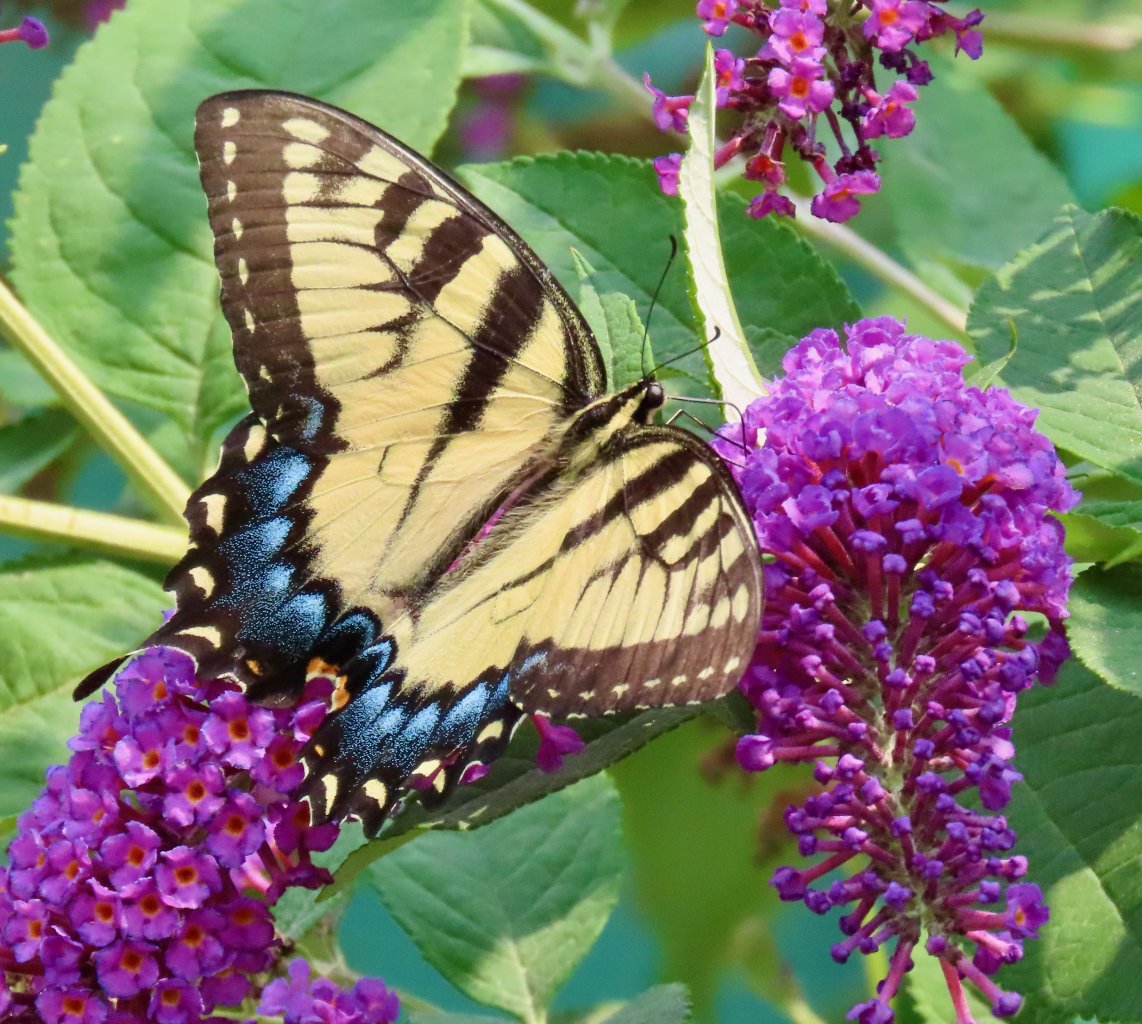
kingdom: Animalia
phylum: Arthropoda
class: Insecta
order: Lepidoptera
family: Papilionidae
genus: Pterourus
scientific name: Pterourus glaucus
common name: Eastern Tiger Swallowtail
